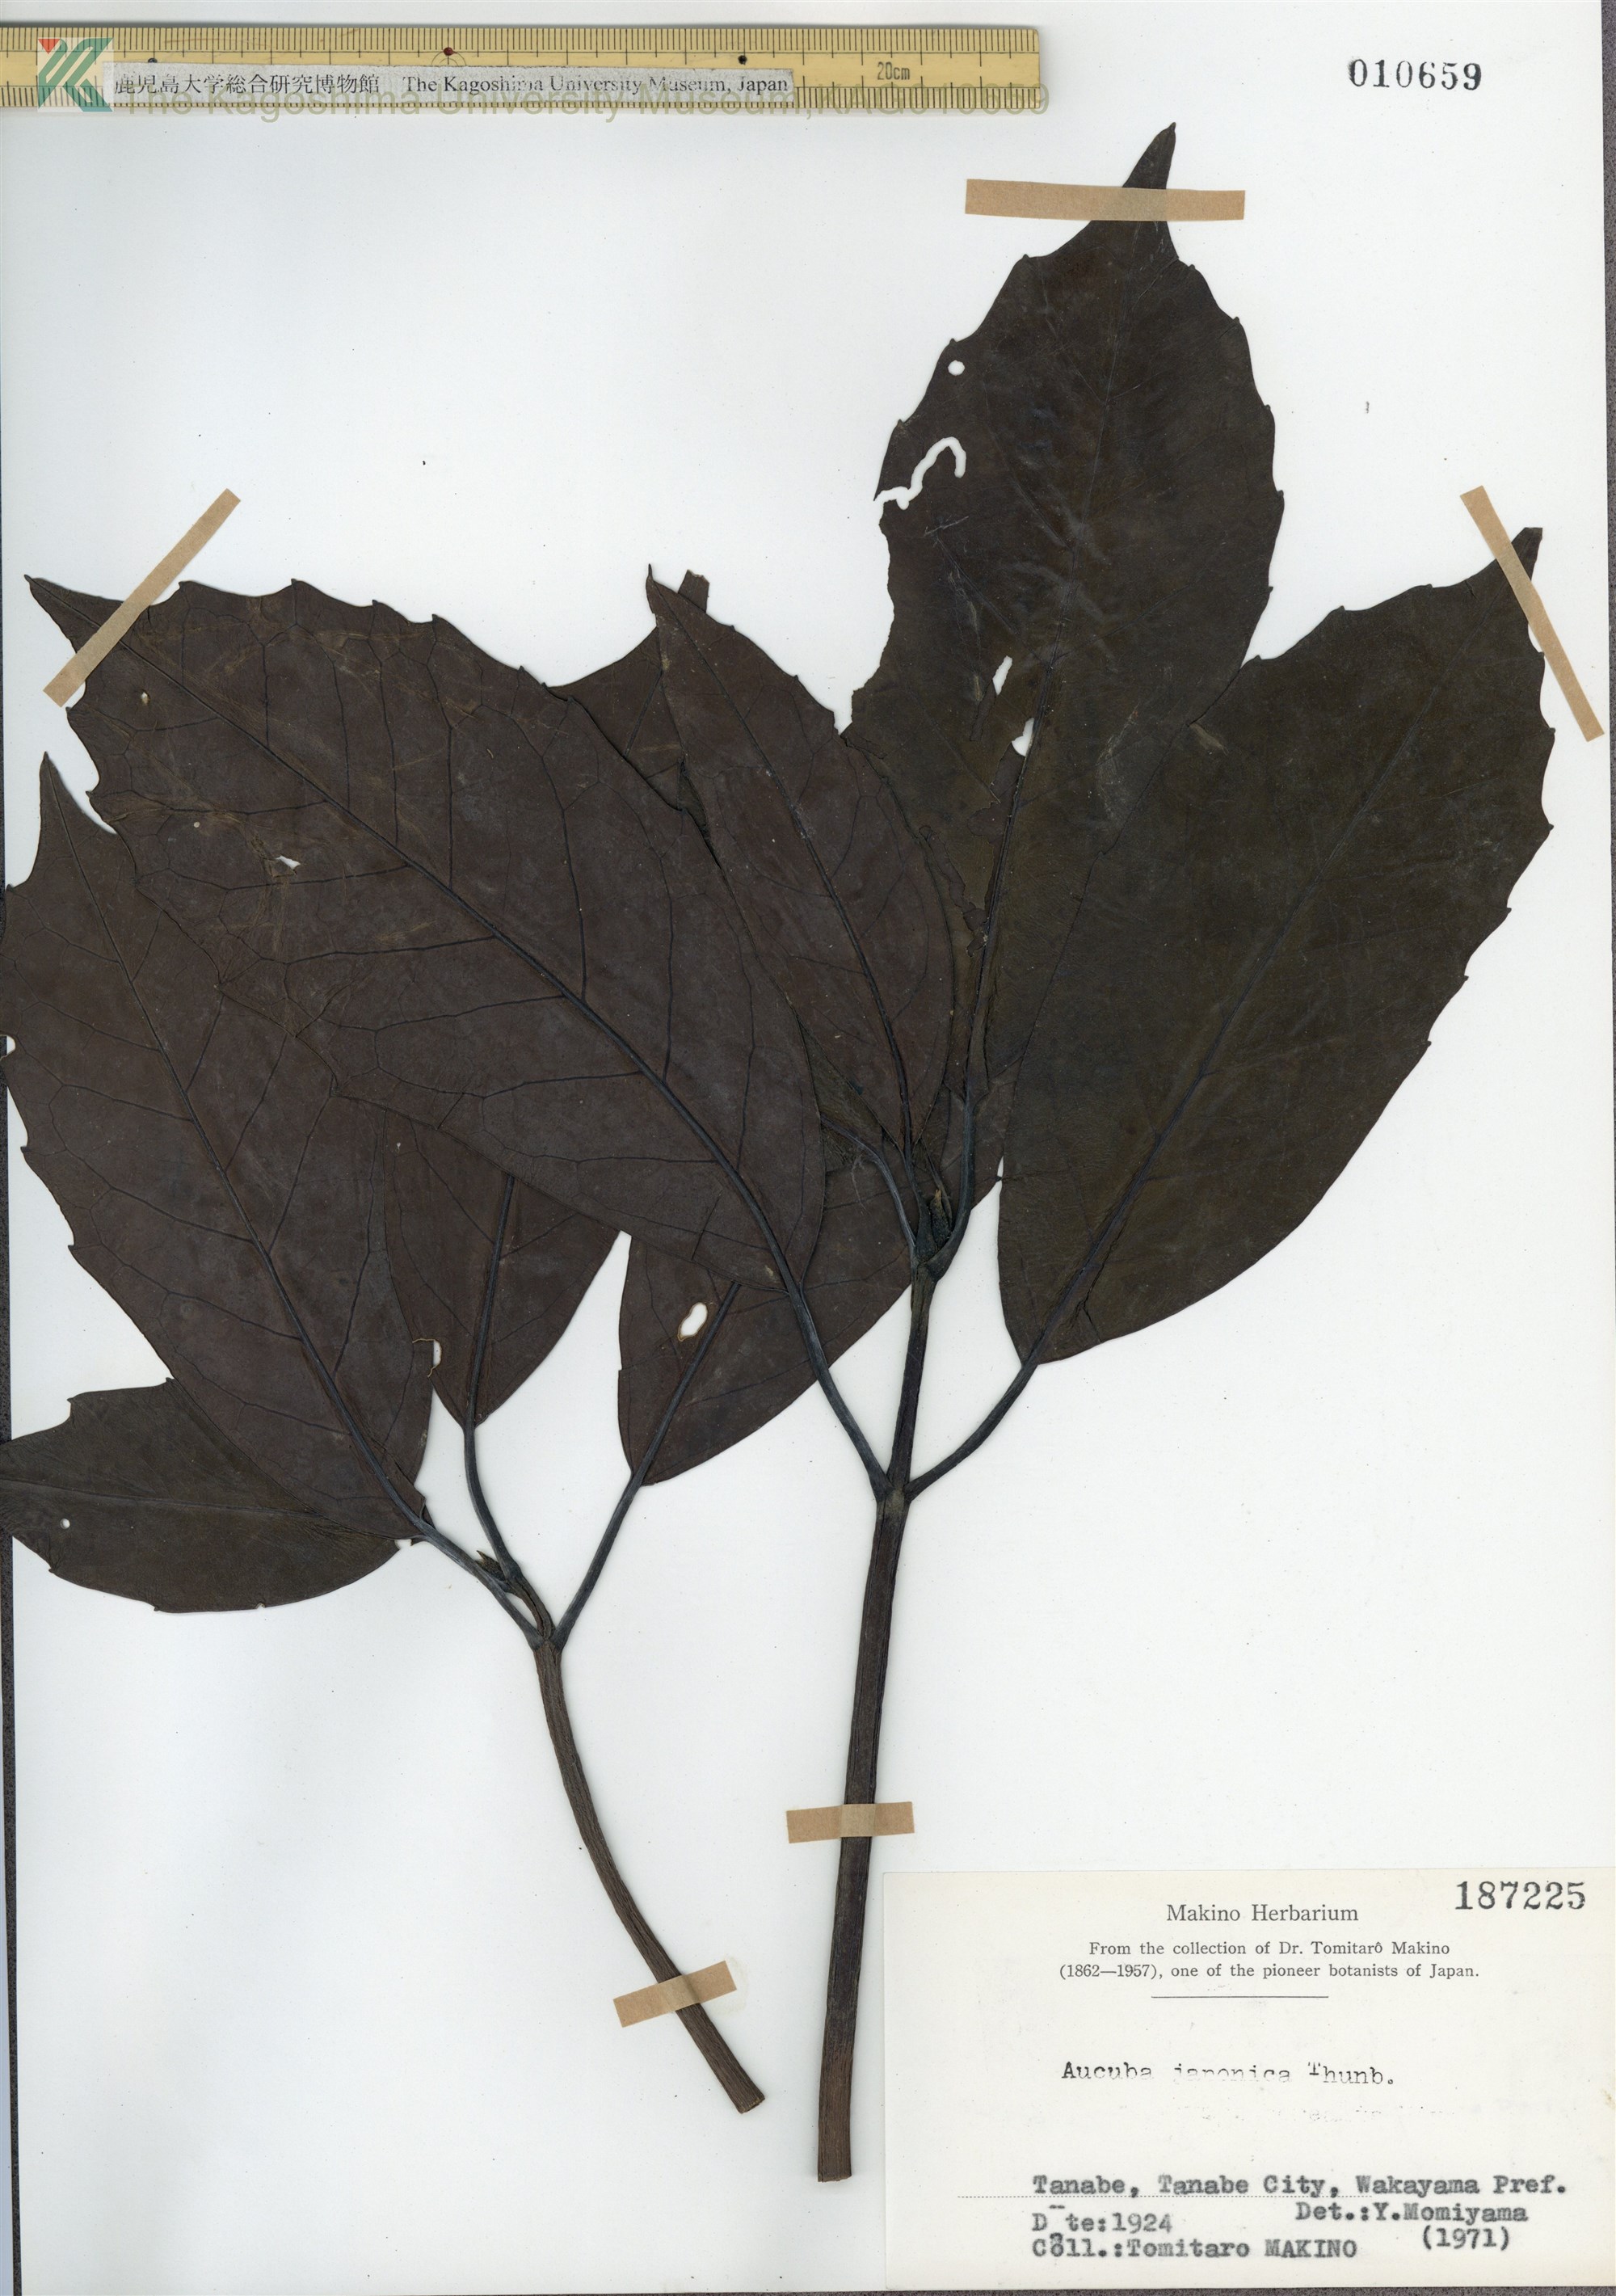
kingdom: Plantae
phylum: Tracheophyta
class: Magnoliopsida
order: Garryales
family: Garryaceae
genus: Aucuba
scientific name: Aucuba japonica
